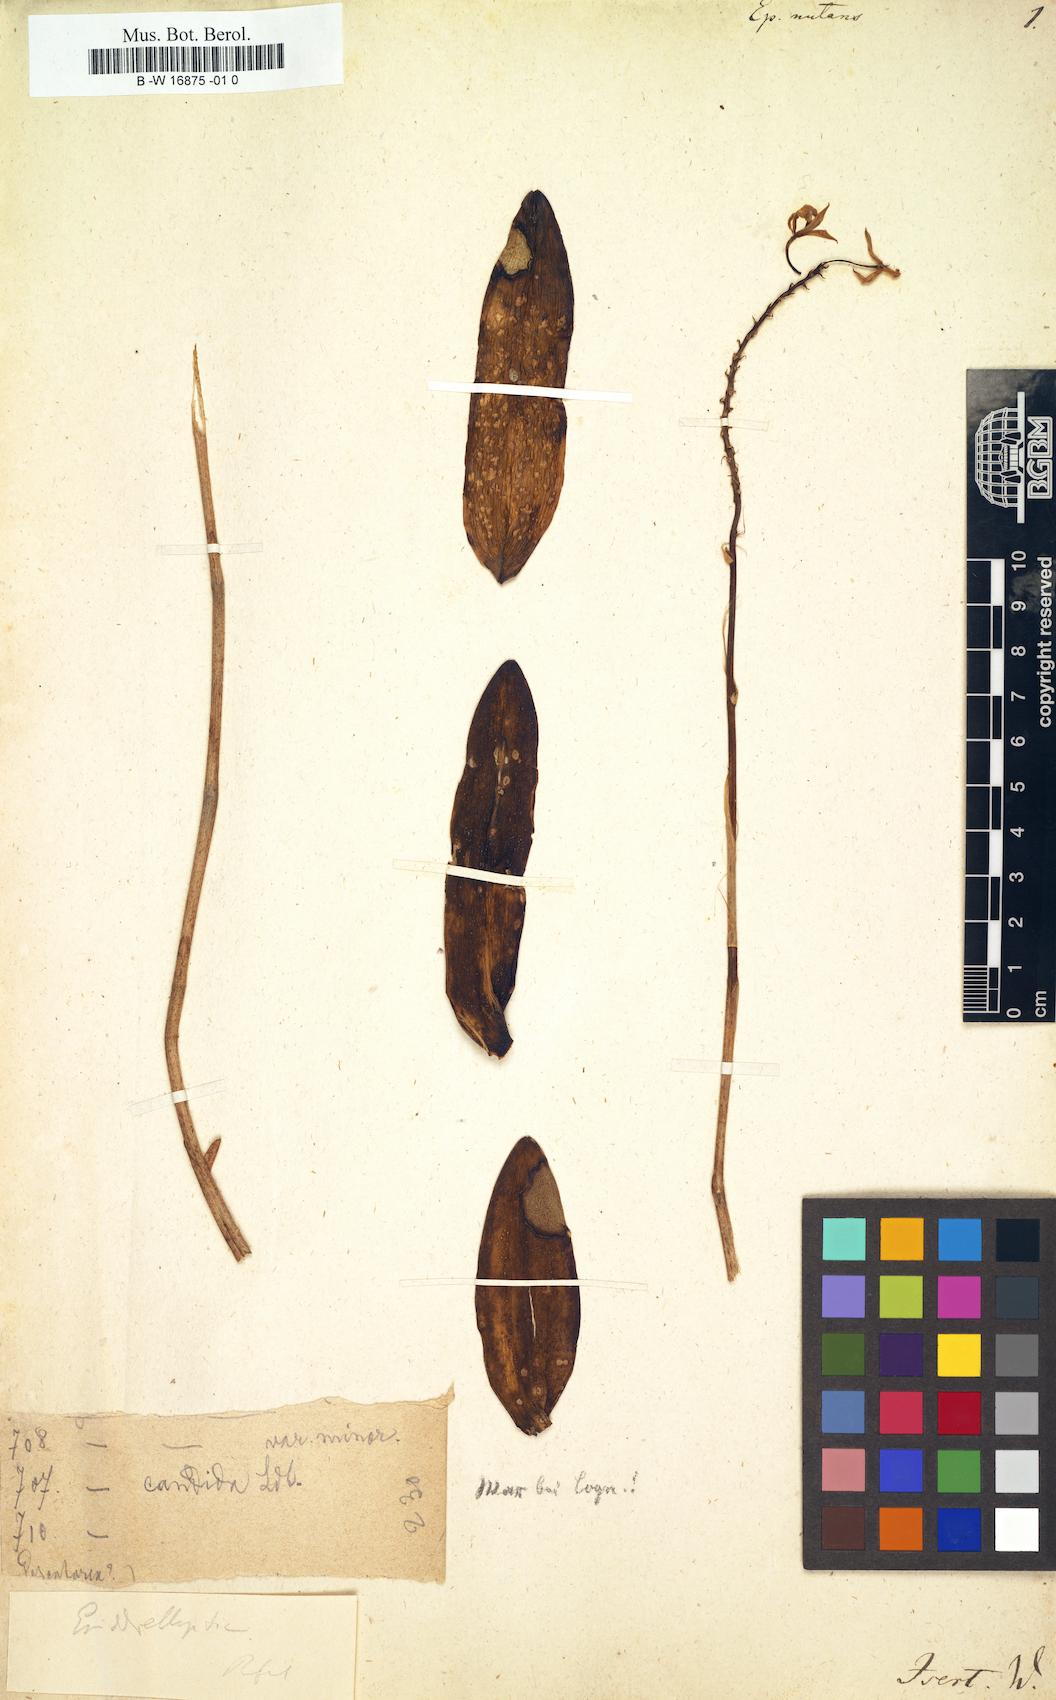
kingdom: Plantae
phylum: Tracheophyta
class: Liliopsida
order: Asparagales
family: Orchidaceae
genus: Epidendrum
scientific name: Epidendrum nutans
